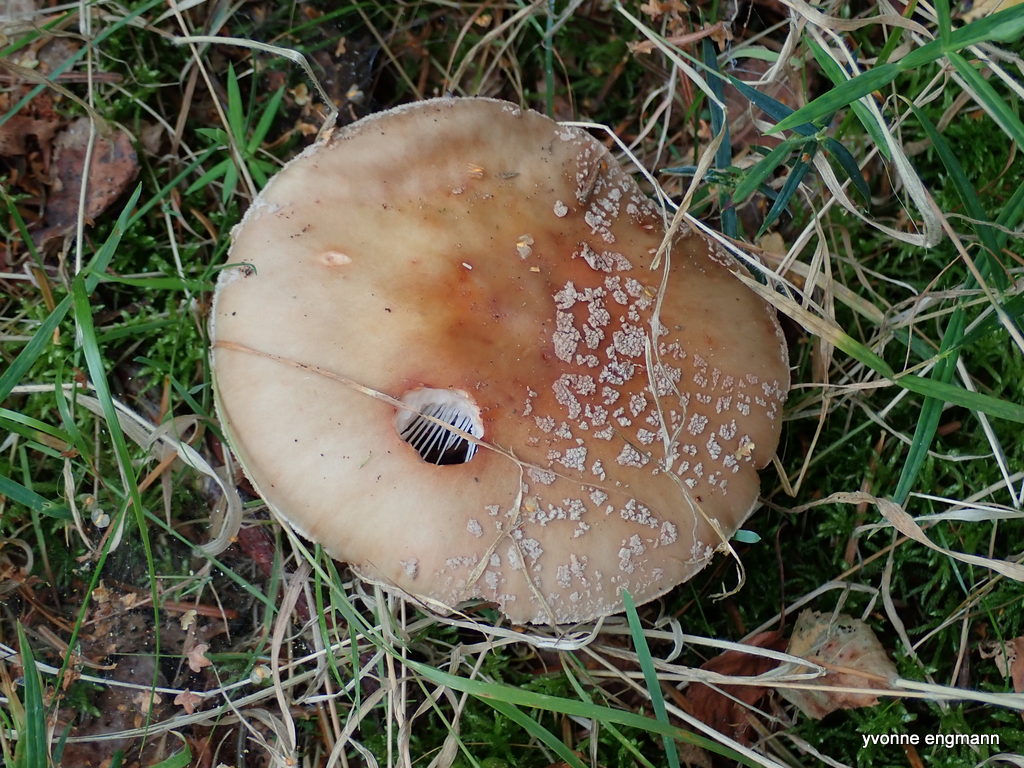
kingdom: Fungi
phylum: Basidiomycota
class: Agaricomycetes
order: Agaricales
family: Amanitaceae
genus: Amanita
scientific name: Amanita rubescens
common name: rødmende fluesvamp
